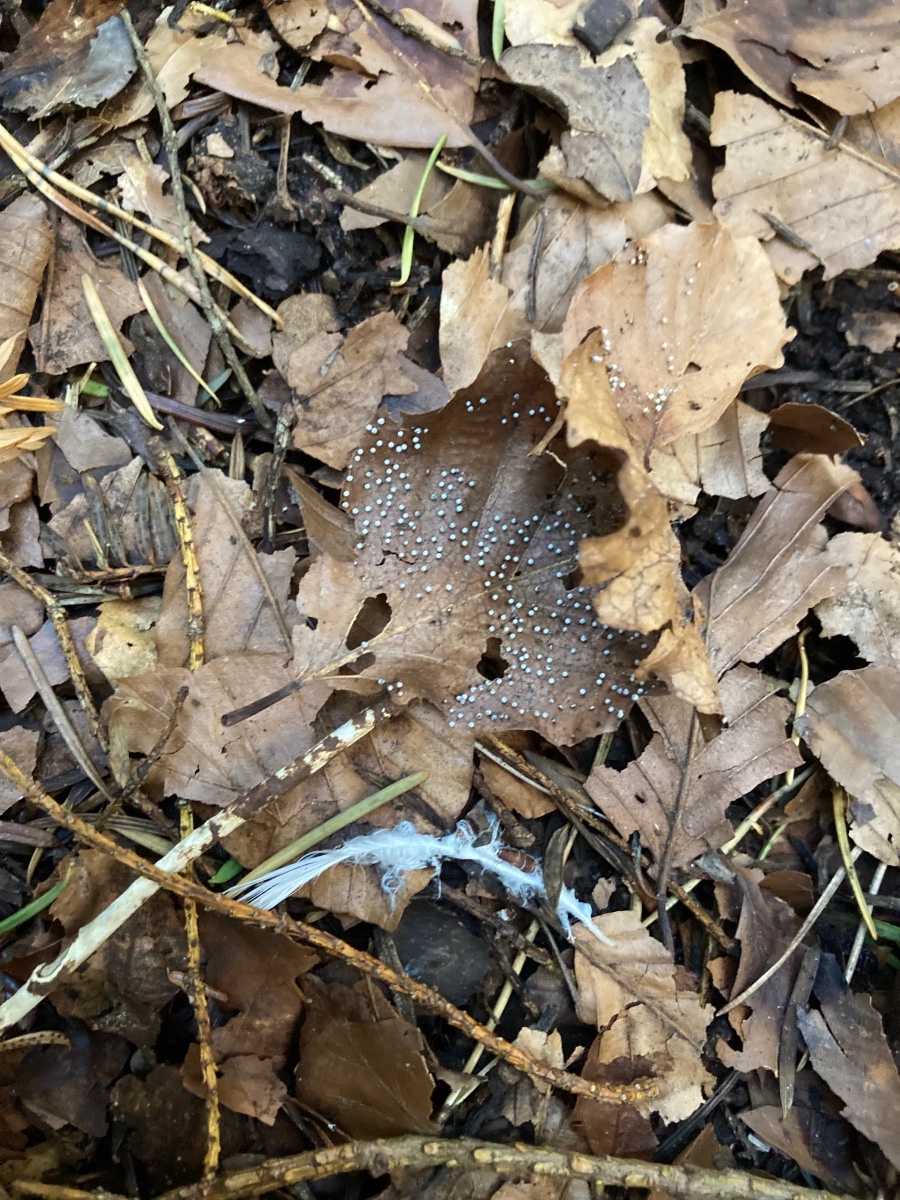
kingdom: Protozoa
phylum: Mycetozoa
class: Myxomycetes
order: Physarales
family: Physaraceae
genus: Craterium
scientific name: Craterium leucocephalum
